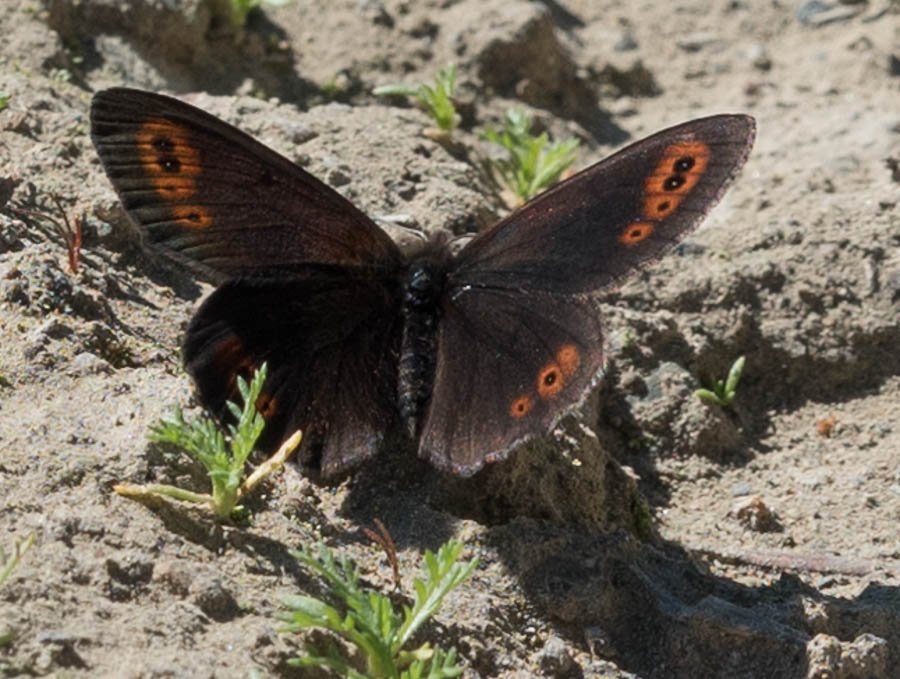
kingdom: Animalia
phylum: Arthropoda
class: Insecta
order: Lepidoptera
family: Nymphalidae
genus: Erebia
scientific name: Erebia epipsodea
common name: Common Alpine
